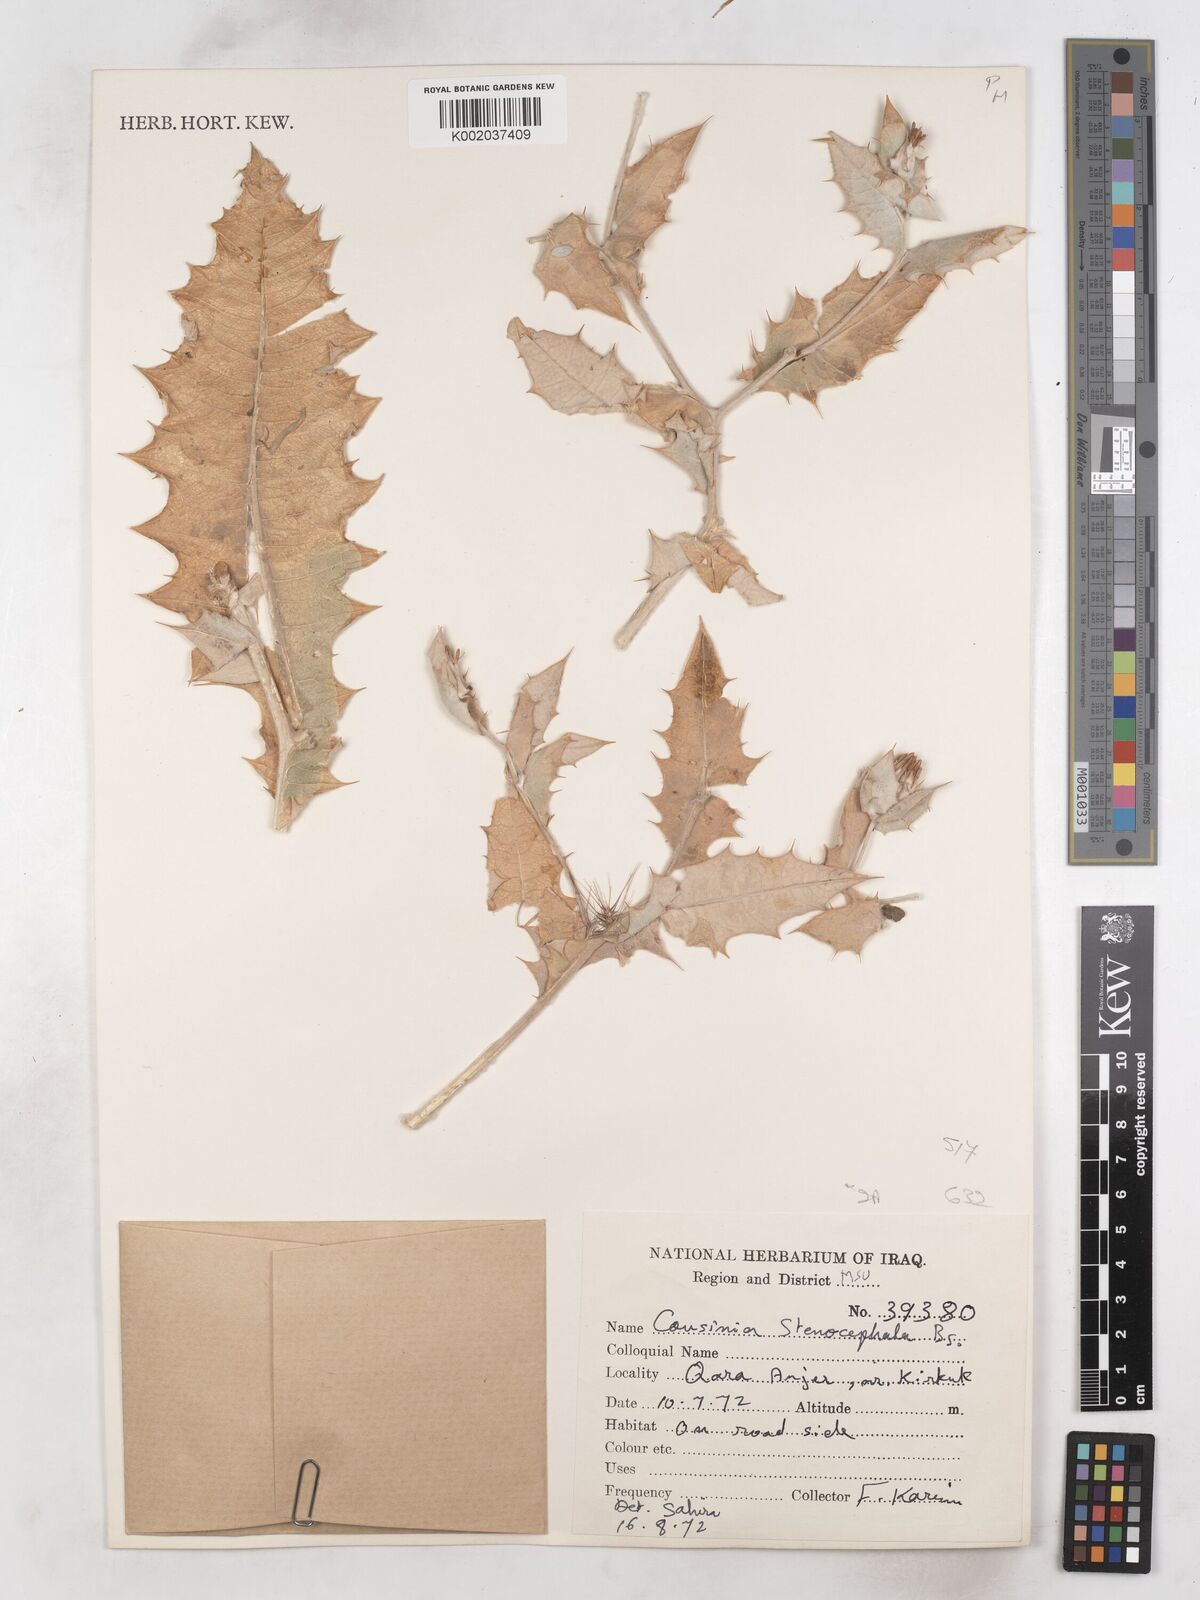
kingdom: Plantae
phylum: Tracheophyta
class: Magnoliopsida
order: Asterales
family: Asteraceae
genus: Cousinia
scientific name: Cousinia stenocephala
